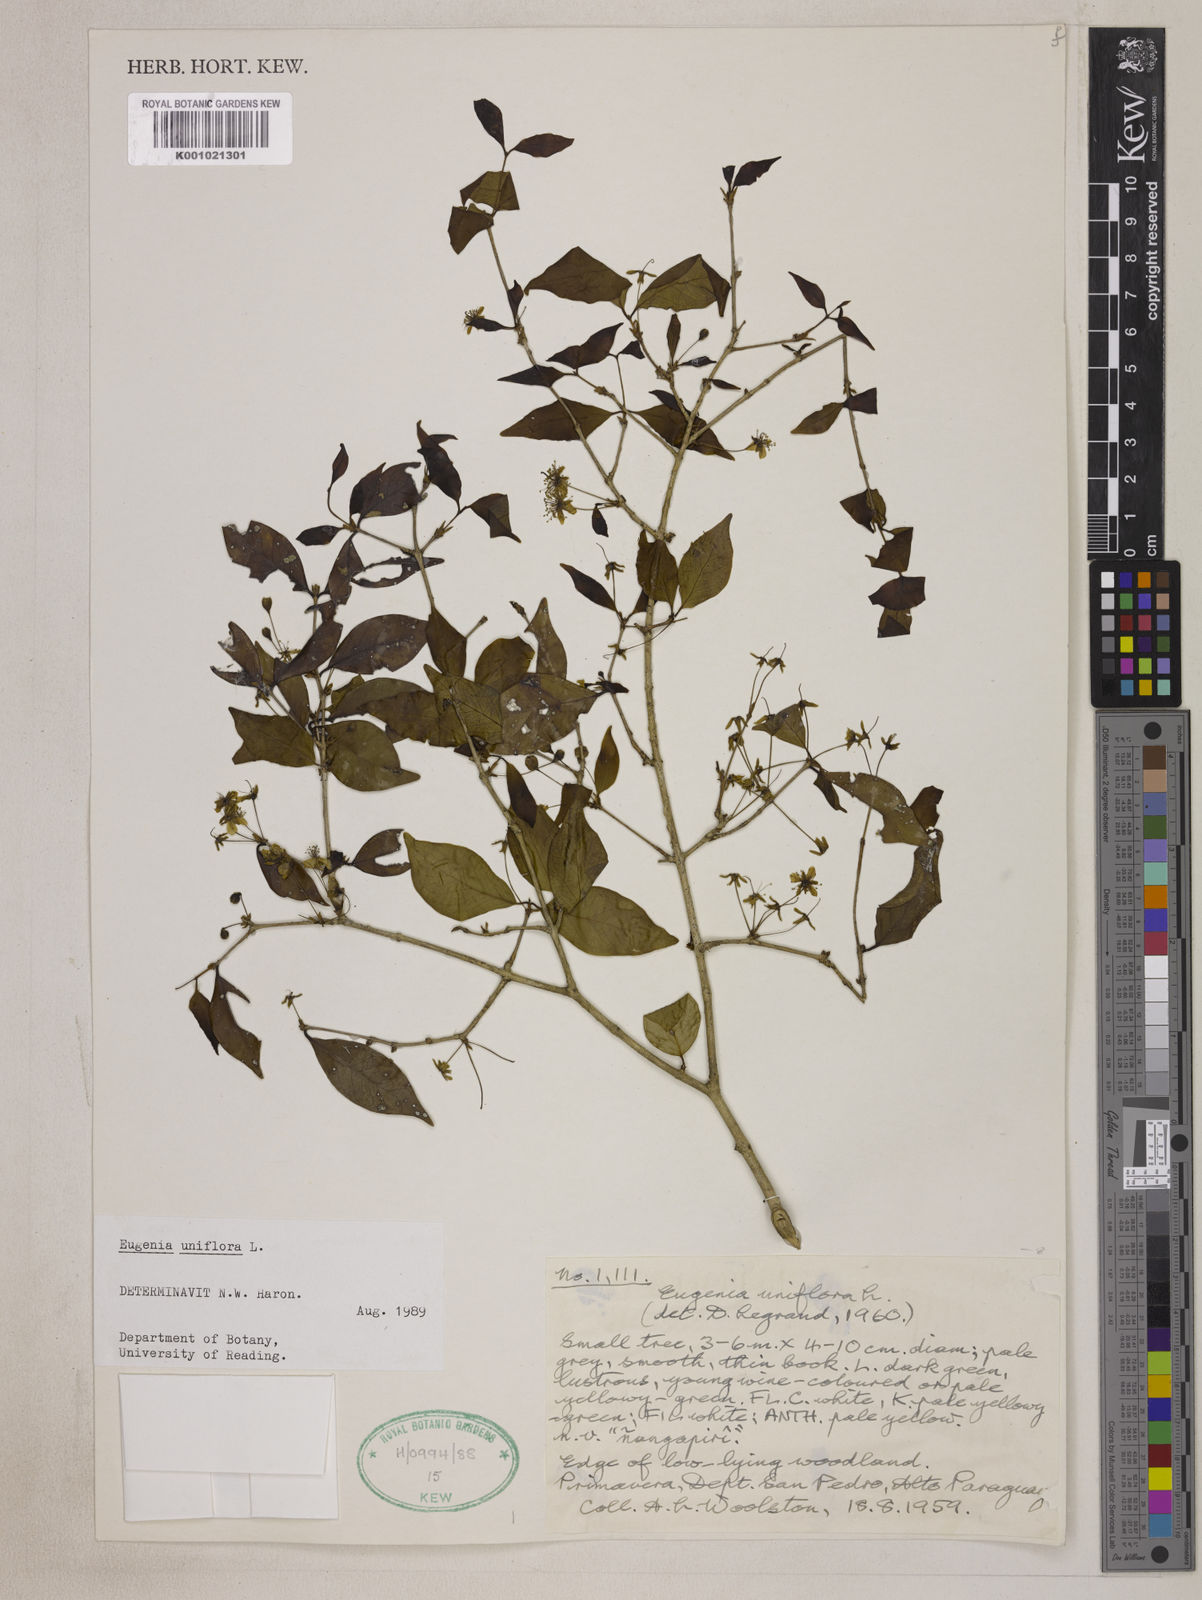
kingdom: Plantae
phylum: Tracheophyta
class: Magnoliopsida
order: Myrtales
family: Myrtaceae
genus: Eugenia
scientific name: Eugenia uniflora
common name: Surinam cherry
